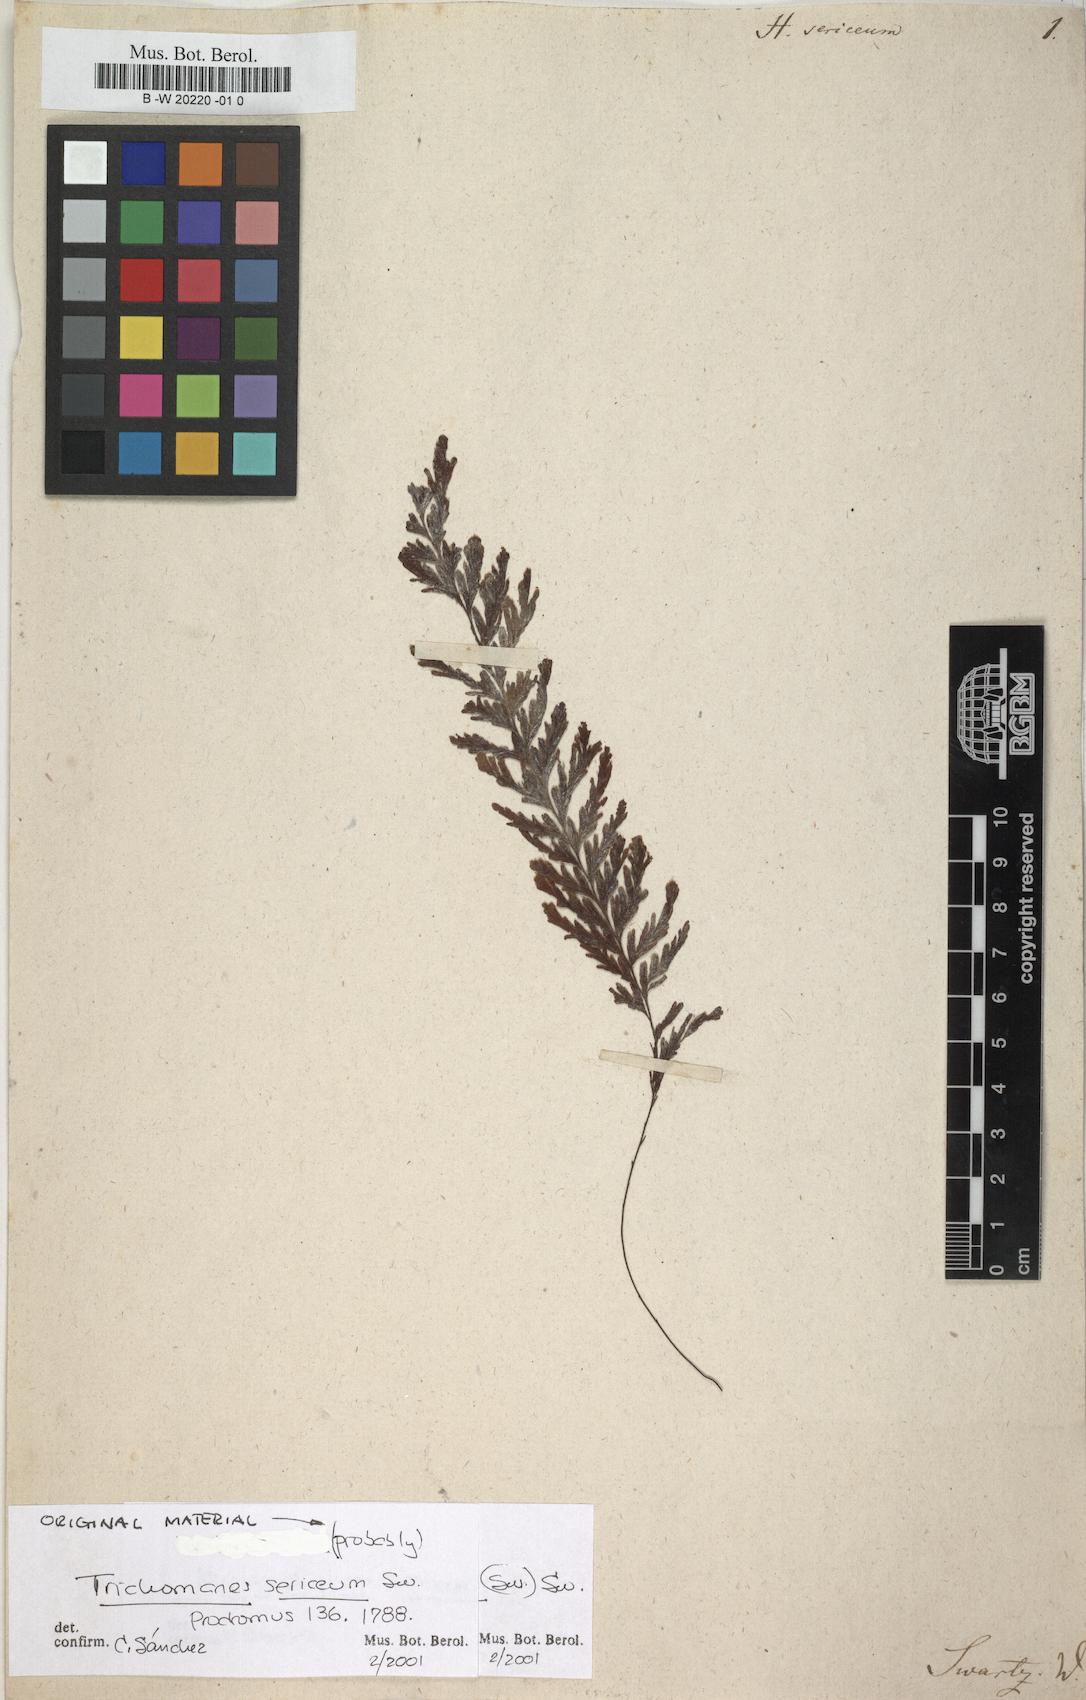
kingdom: Plantae
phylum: Tracheophyta
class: Polypodiopsida
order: Hymenophyllales
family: Hymenophyllaceae
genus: Hymenophyllum
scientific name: Hymenophyllum sericeum
